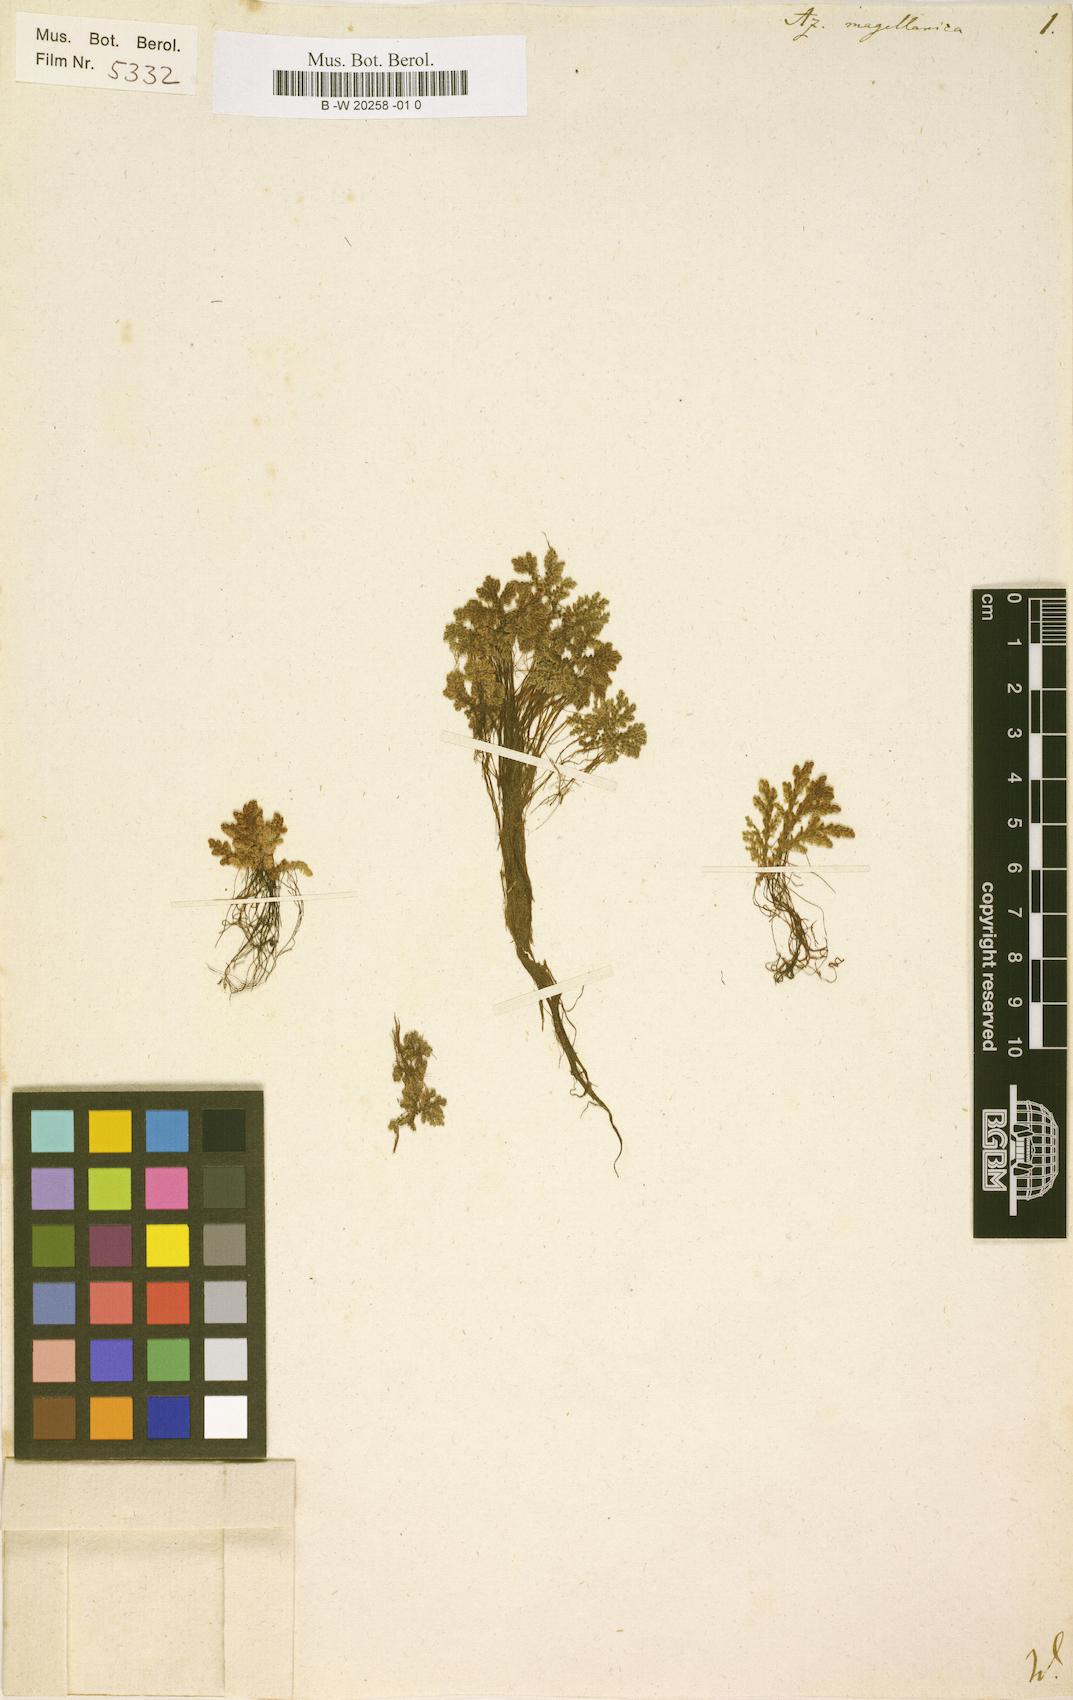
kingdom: Plantae
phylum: Tracheophyta
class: Polypodiopsida
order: Salviniales
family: Salviniaceae
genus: Azolla
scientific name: Azolla filiculoides
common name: Water fern
